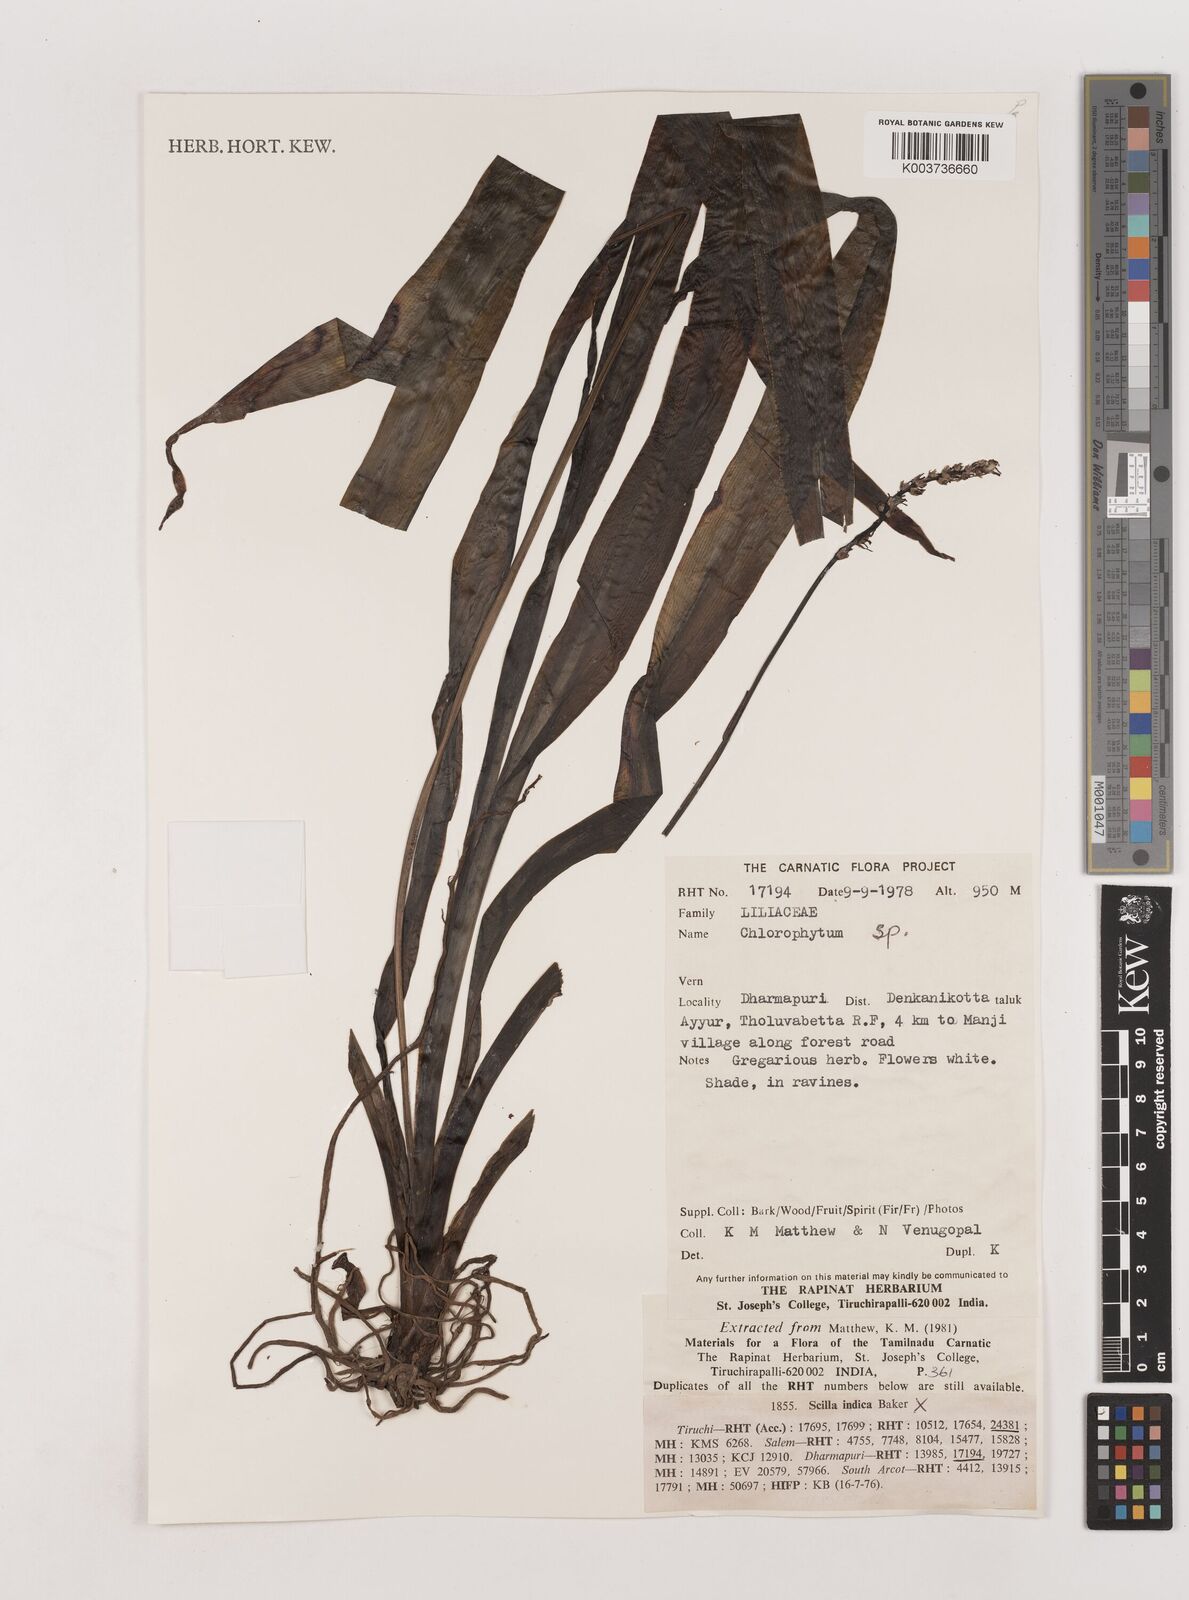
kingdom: Plantae
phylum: Tracheophyta
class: Liliopsida
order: Asparagales
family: Asparagaceae
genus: Chlorophytum
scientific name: Chlorophytum
